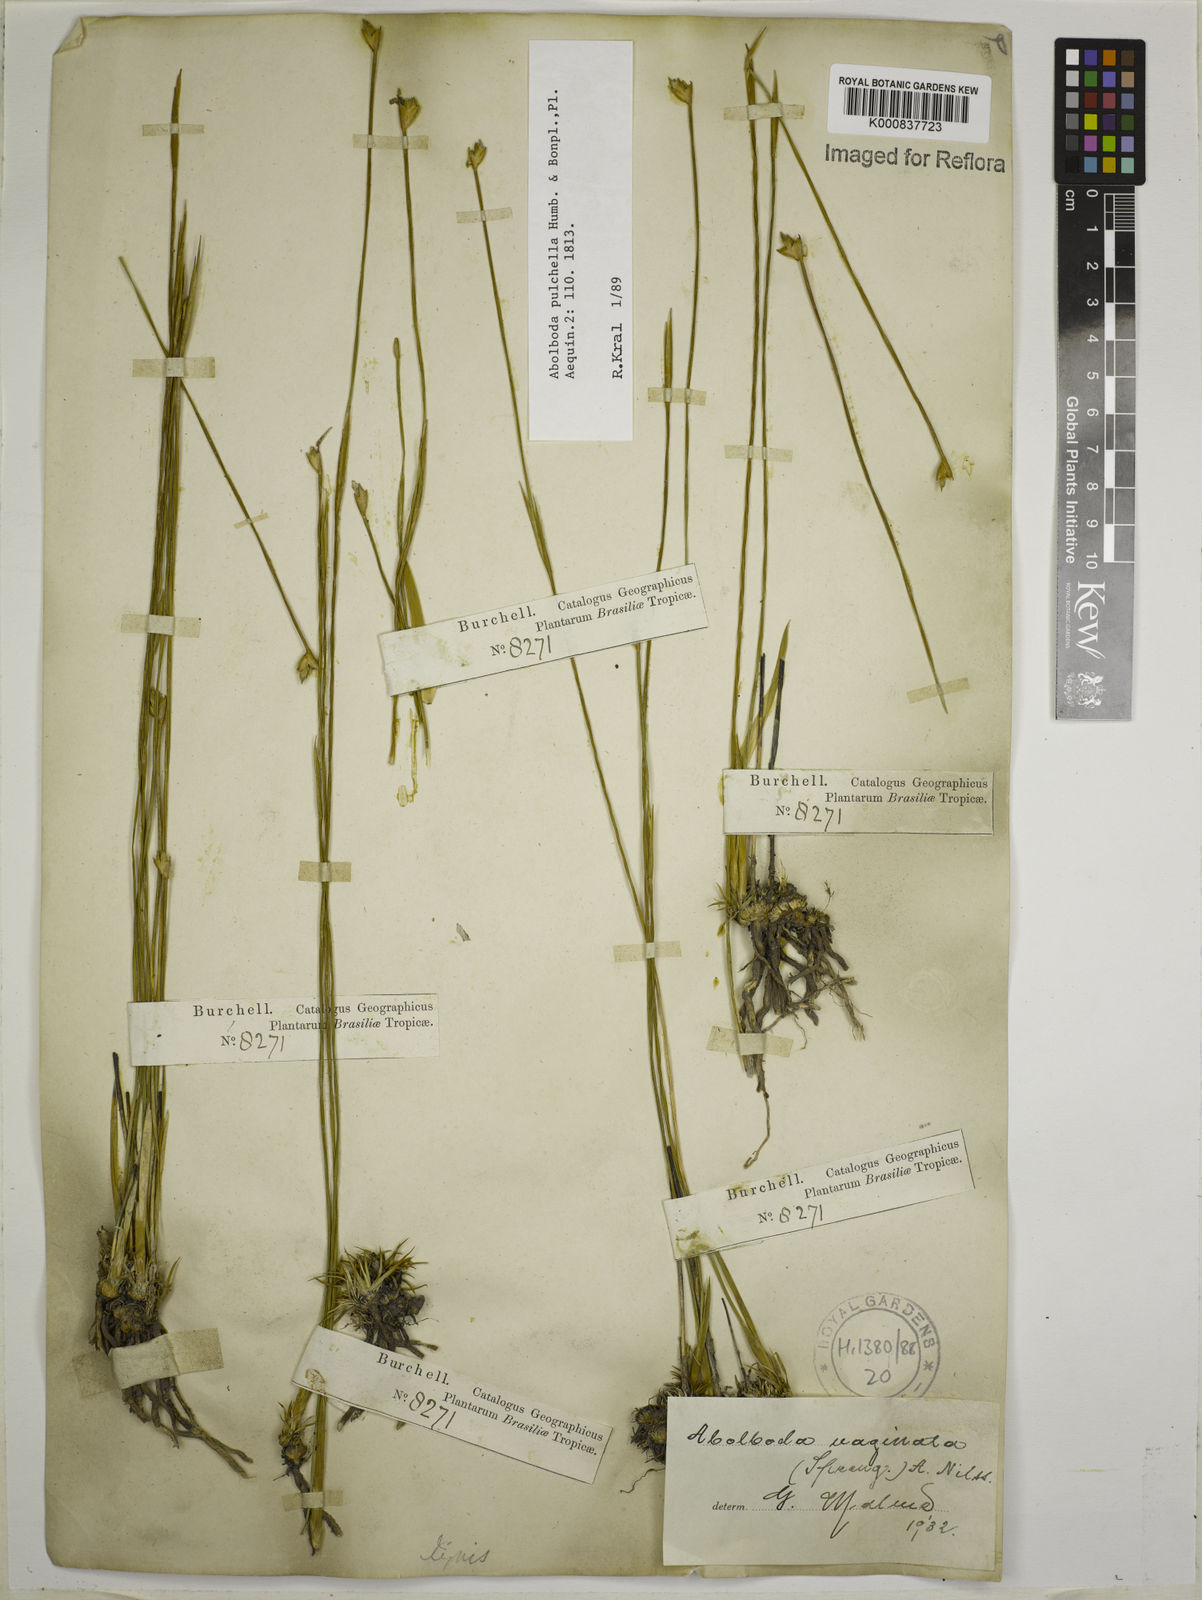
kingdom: Plantae
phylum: Tracheophyta
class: Liliopsida
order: Poales
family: Xyridaceae
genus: Abolboda
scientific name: Abolboda pulchella
